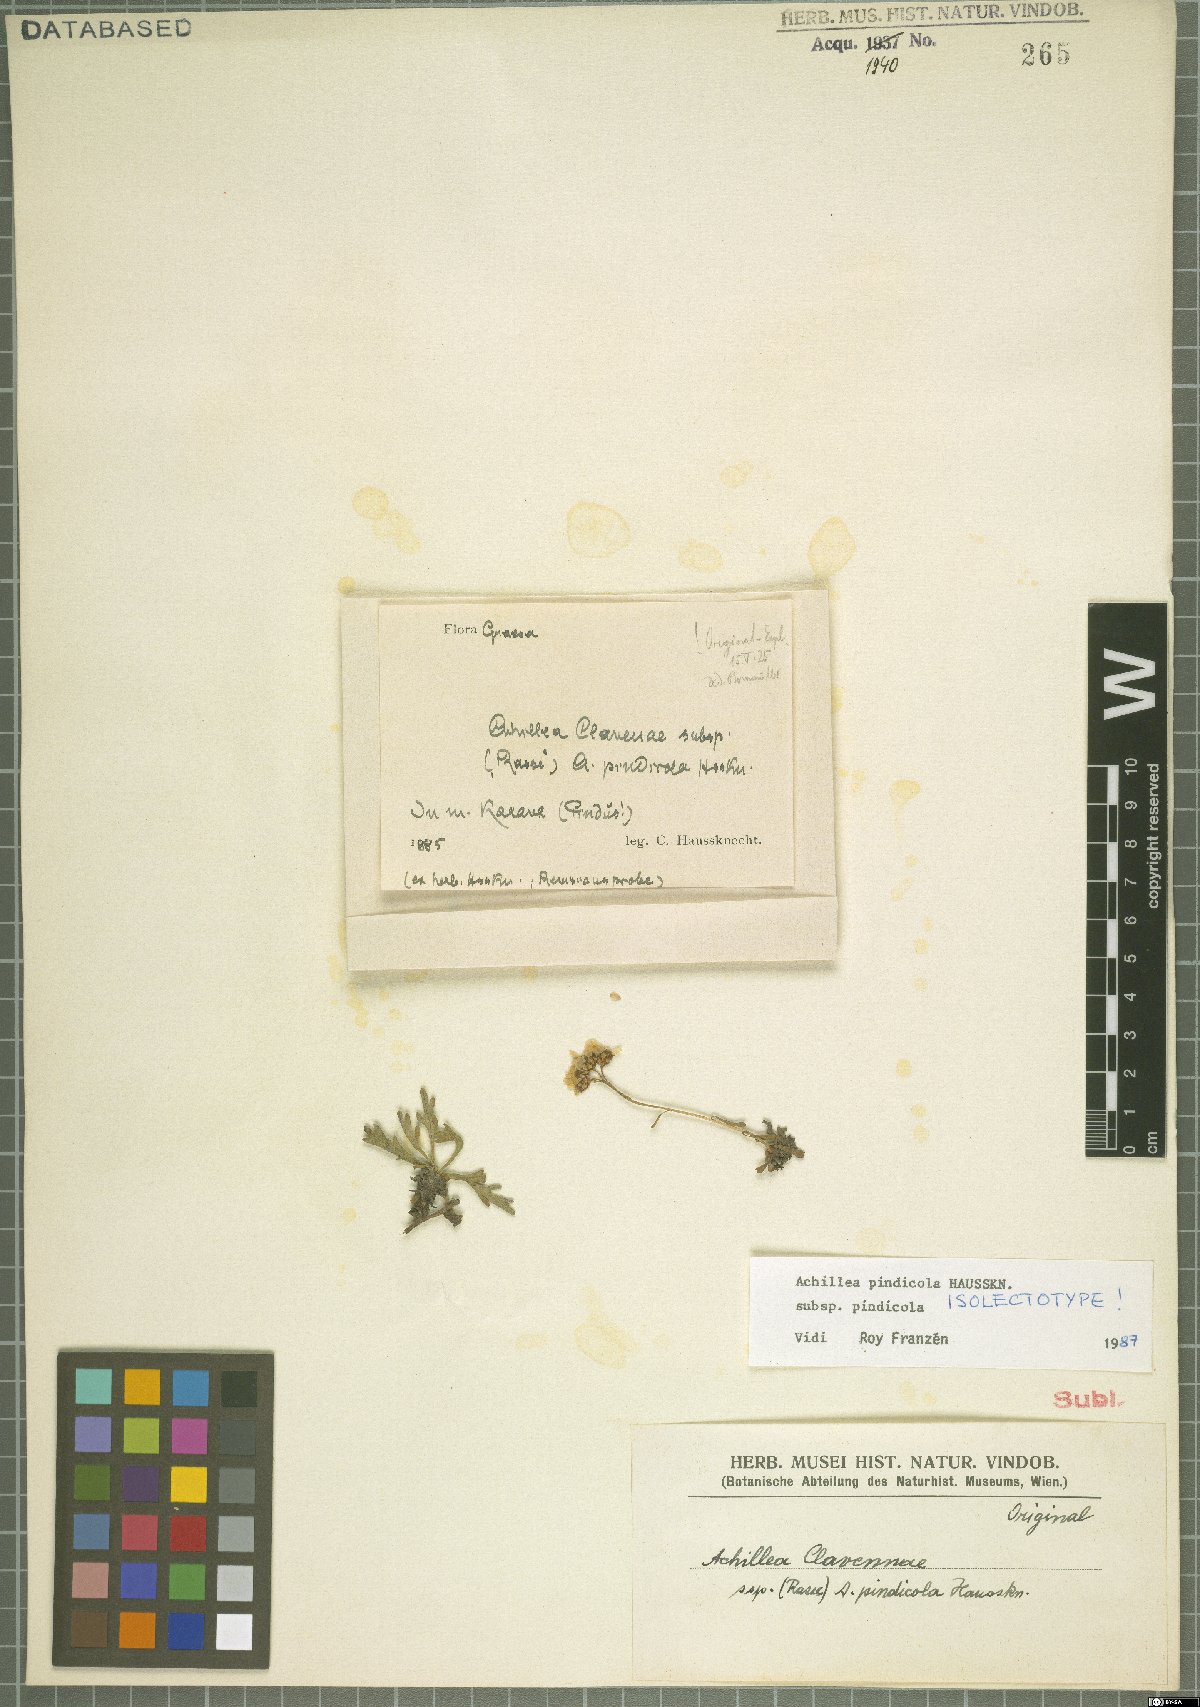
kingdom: Plantae
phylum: Tracheophyta
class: Magnoliopsida
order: Asterales
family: Asteraceae
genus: Achillea
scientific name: Achillea pindicola
